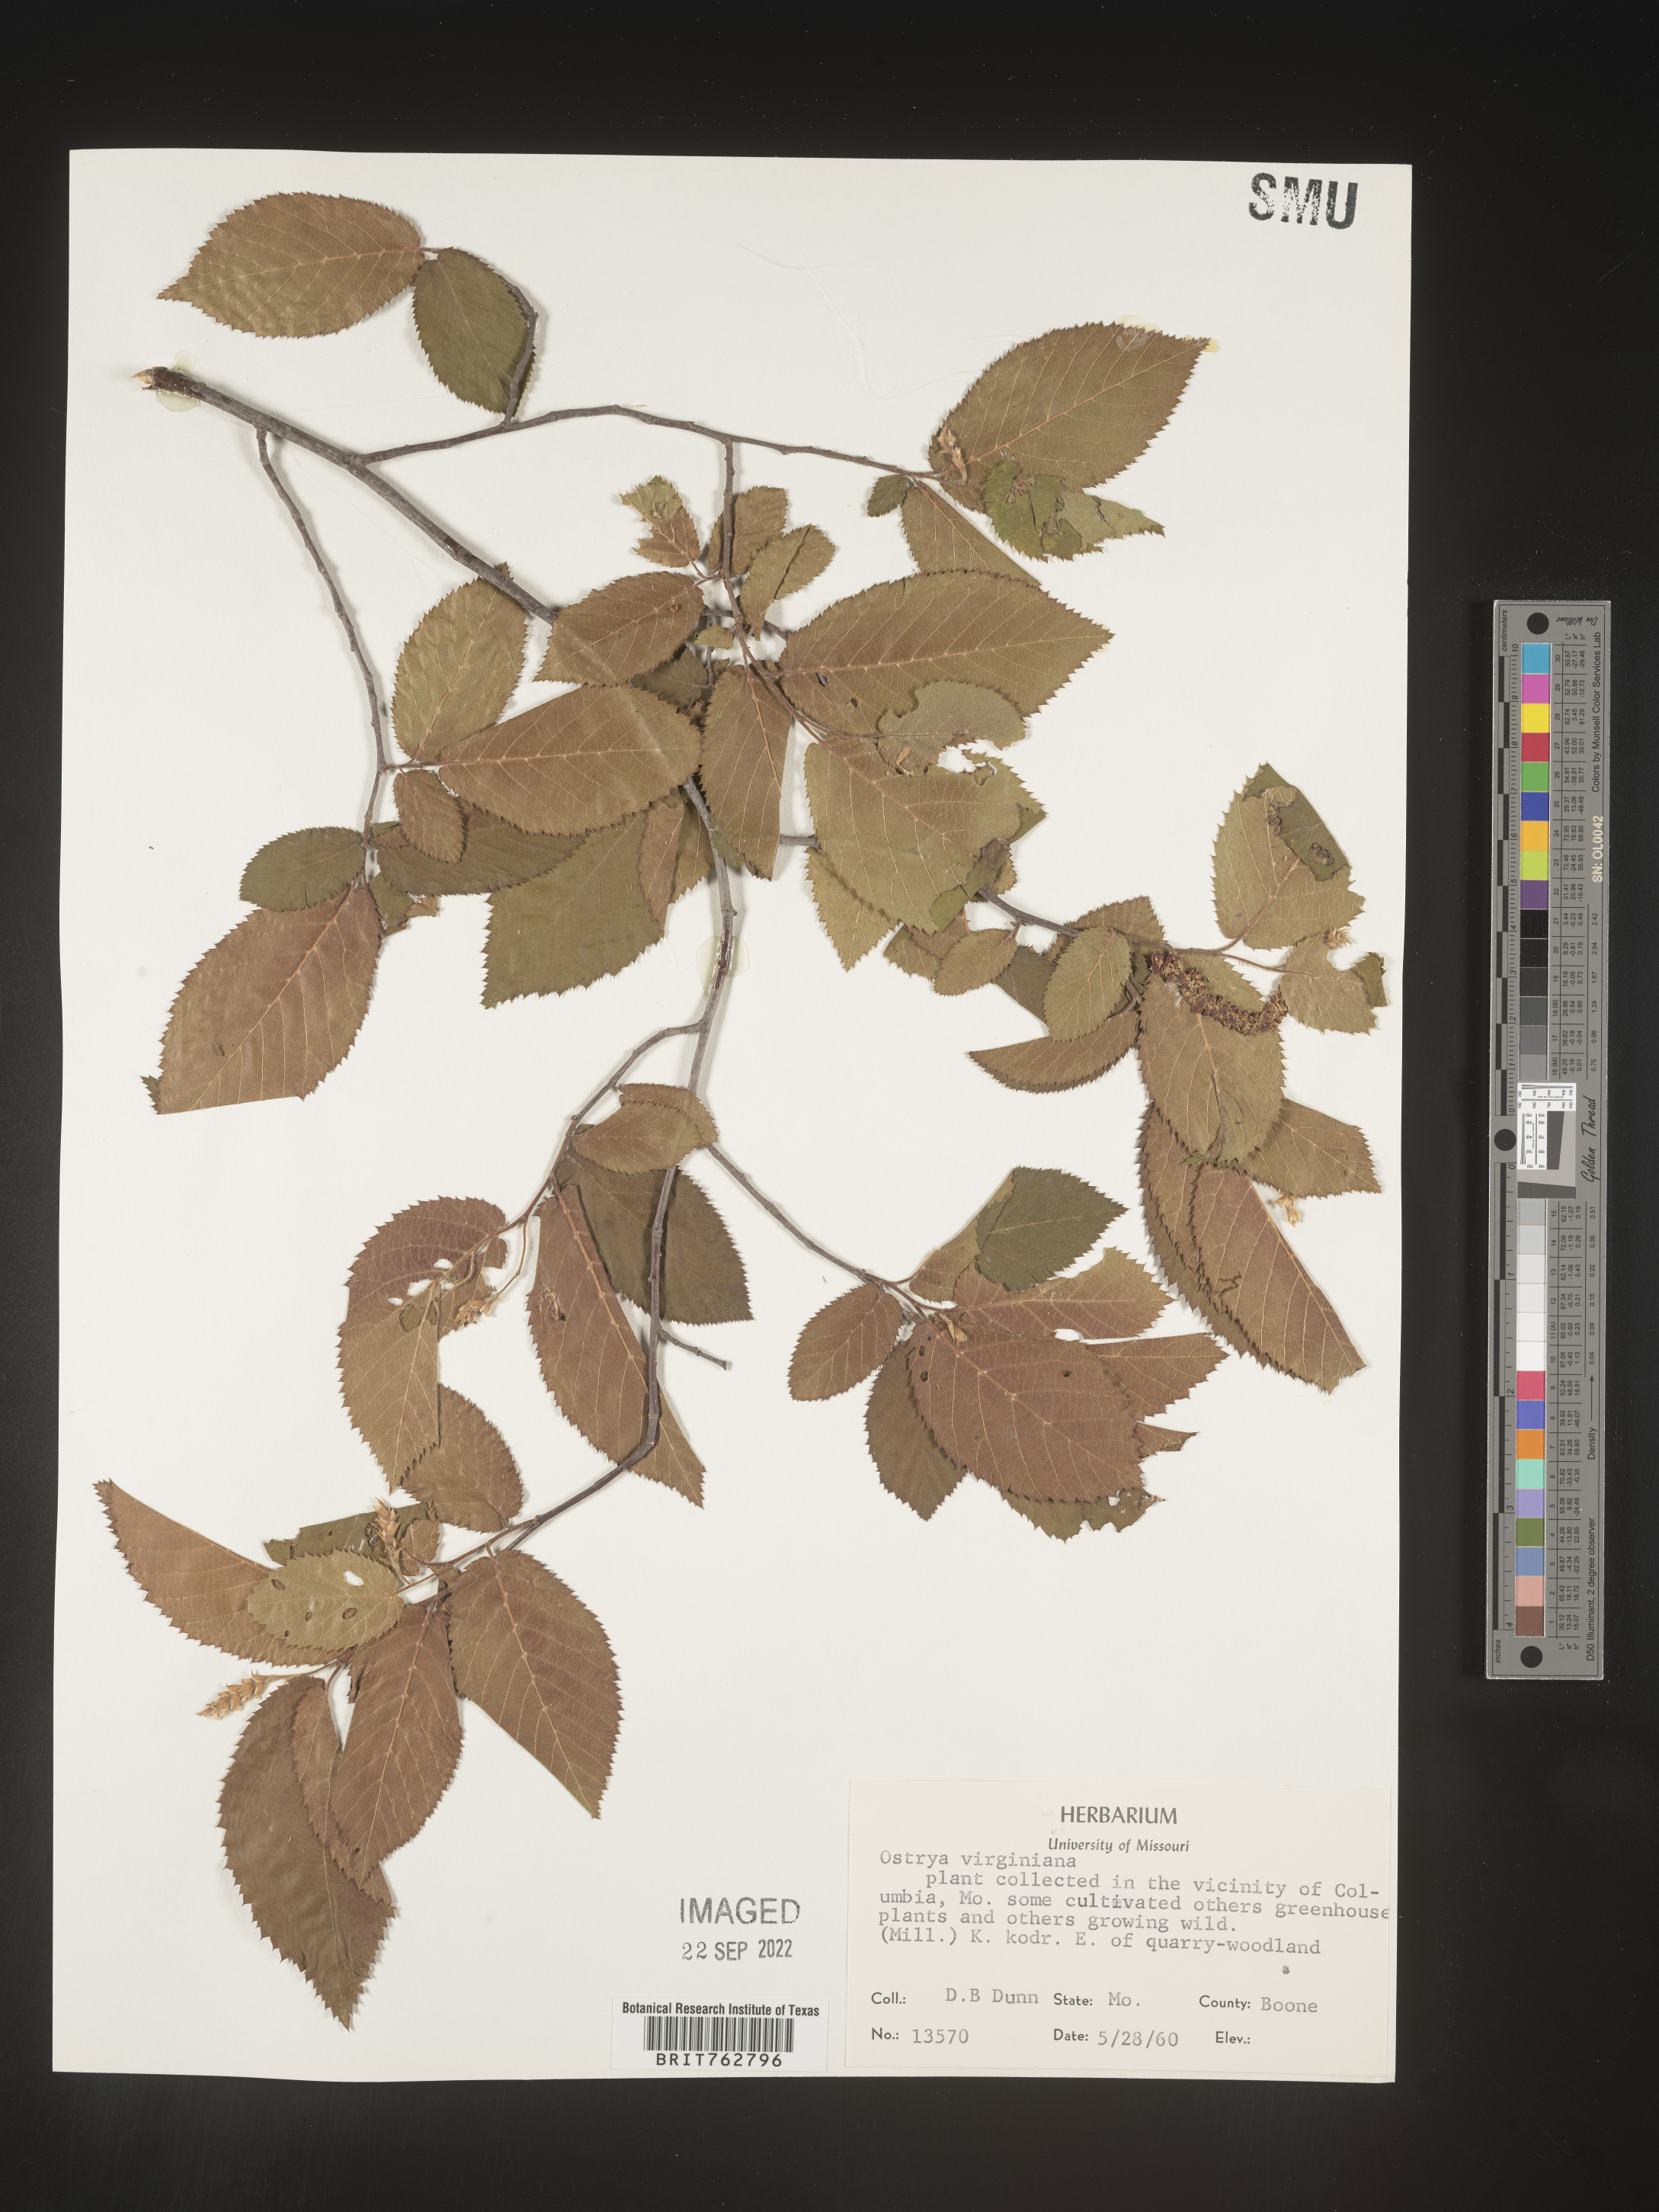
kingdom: Plantae
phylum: Tracheophyta
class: Magnoliopsida
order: Fagales
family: Betulaceae
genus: Ostrya
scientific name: Ostrya virginiana
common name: Ironwood
